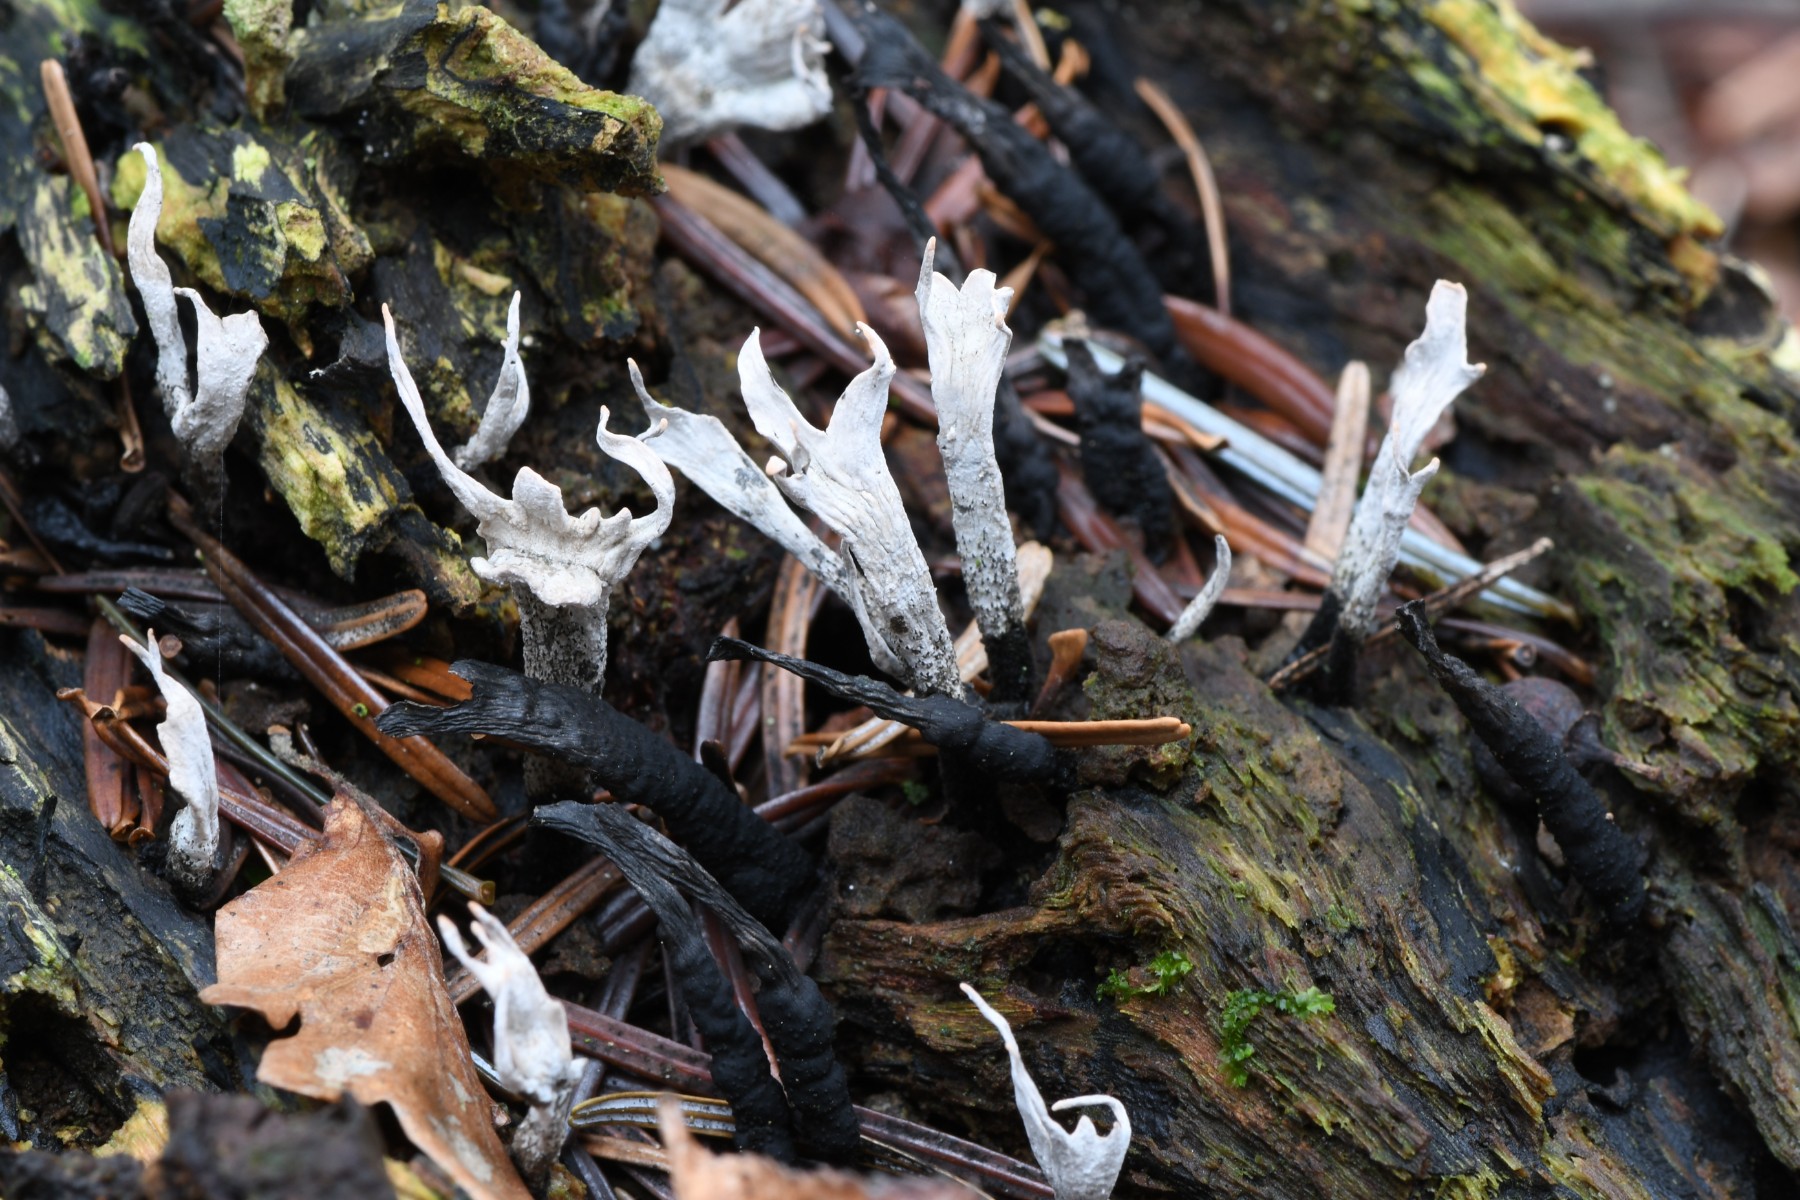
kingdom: Fungi
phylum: Ascomycota
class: Sordariomycetes
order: Xylariales
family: Xylariaceae
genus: Xylaria
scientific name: Xylaria hypoxylon
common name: grenet stødsvamp
